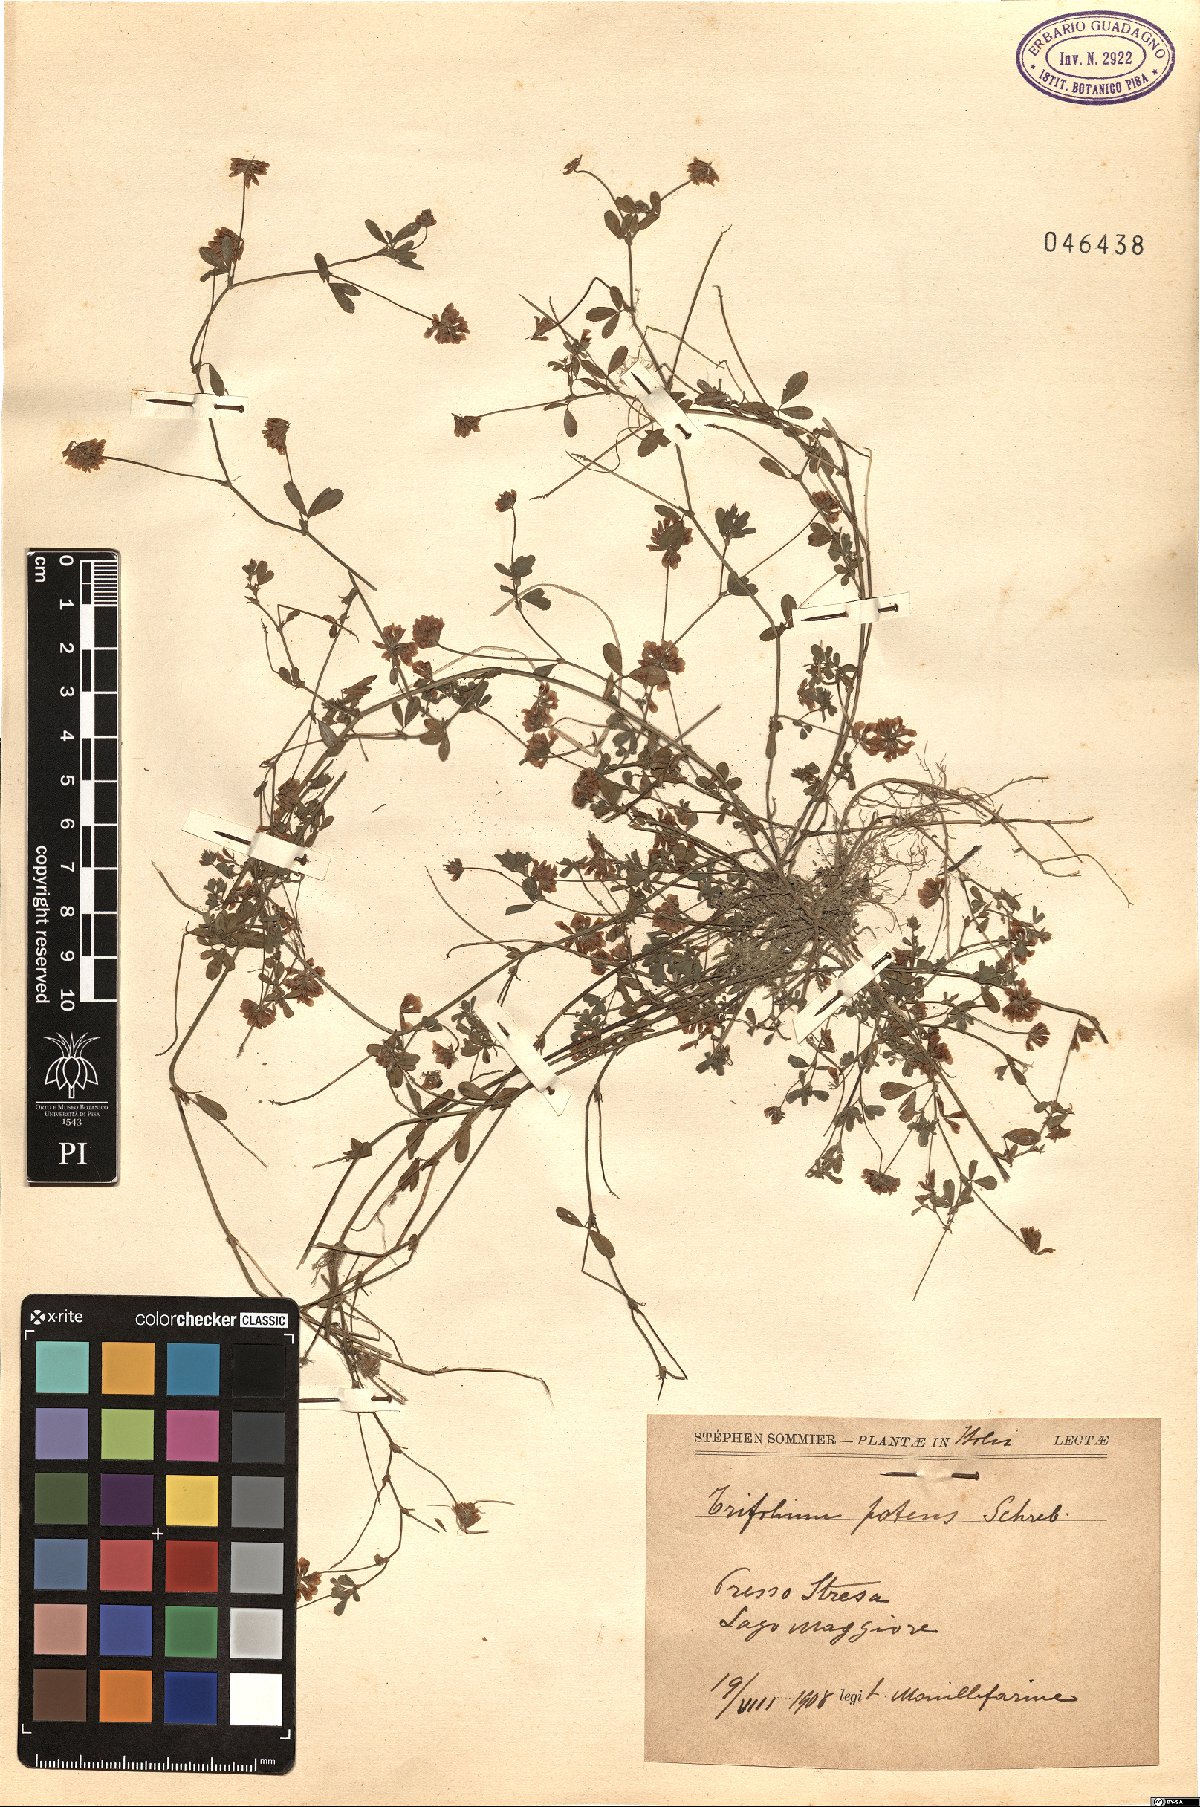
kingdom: Plantae
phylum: Tracheophyta
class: Magnoliopsida
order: Fabales
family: Fabaceae
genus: Trifolium
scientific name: Trifolium patens
